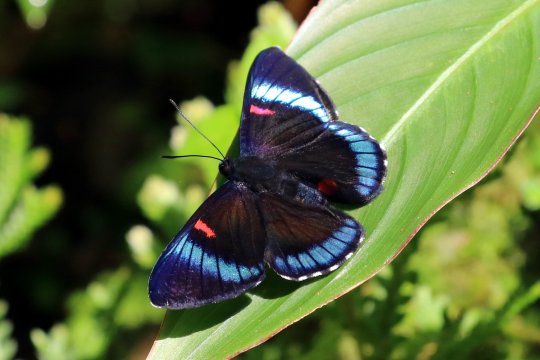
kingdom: Animalia
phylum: Arthropoda
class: Insecta
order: Lepidoptera
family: Lycaenidae
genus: Necyria
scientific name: Necyria bellona
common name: bellona metalmark
